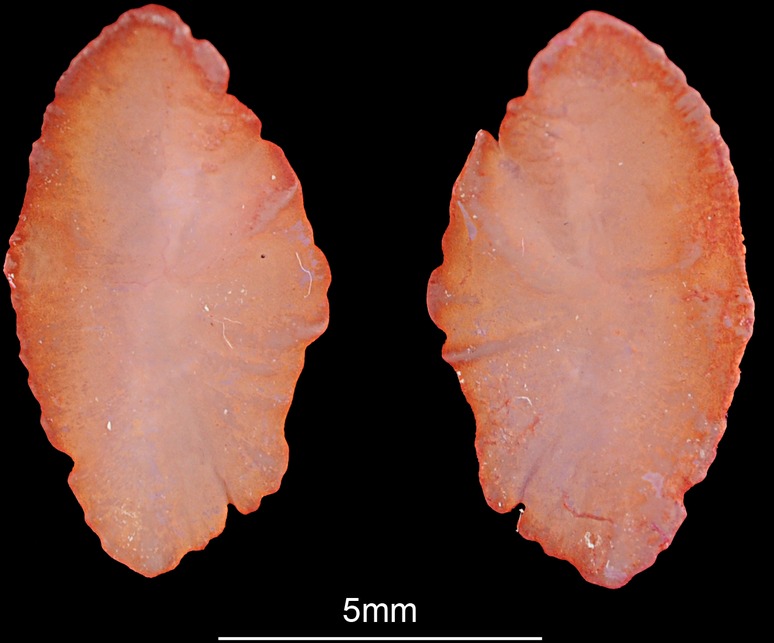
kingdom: Animalia
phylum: Chordata
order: Perciformes
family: Sparidae
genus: Boopsoidea
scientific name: Boopsoidea inornata
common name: Fransmadam
